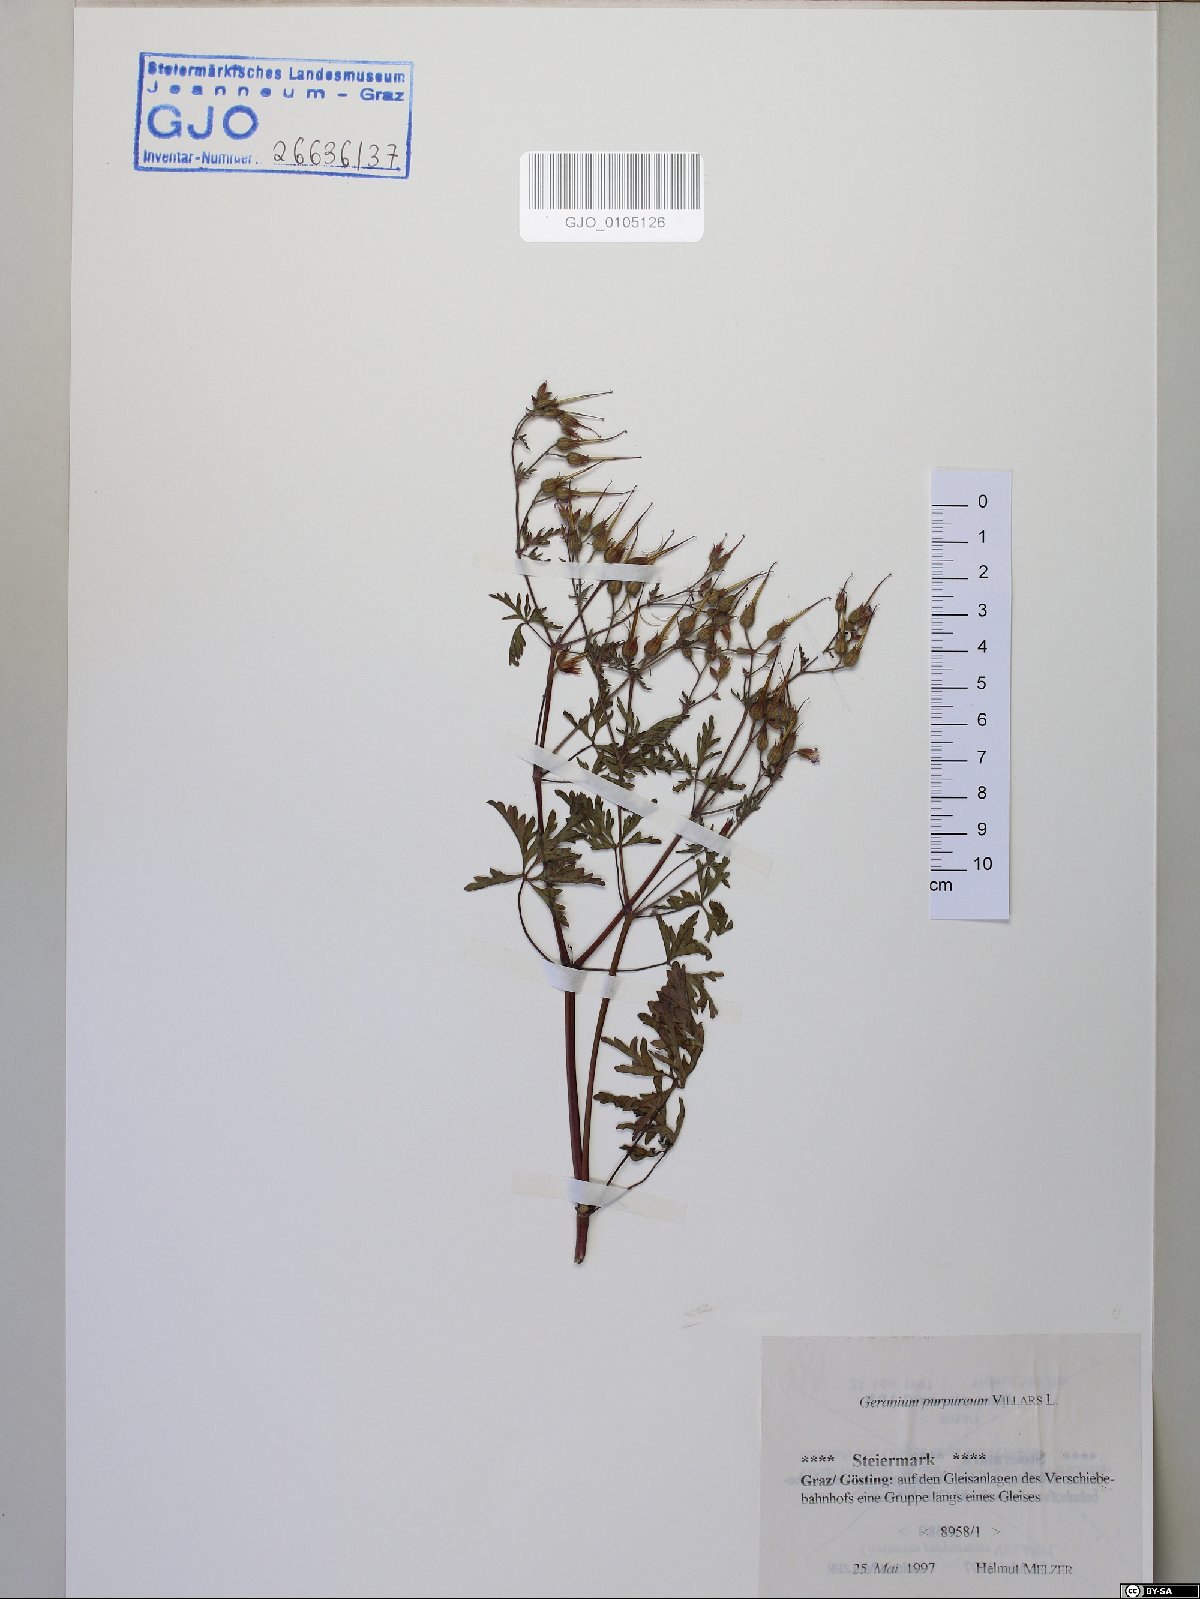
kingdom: Plantae
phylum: Tracheophyta
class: Magnoliopsida
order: Geraniales
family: Geraniaceae
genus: Geranium
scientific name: Geranium purpureum
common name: Little-robin
